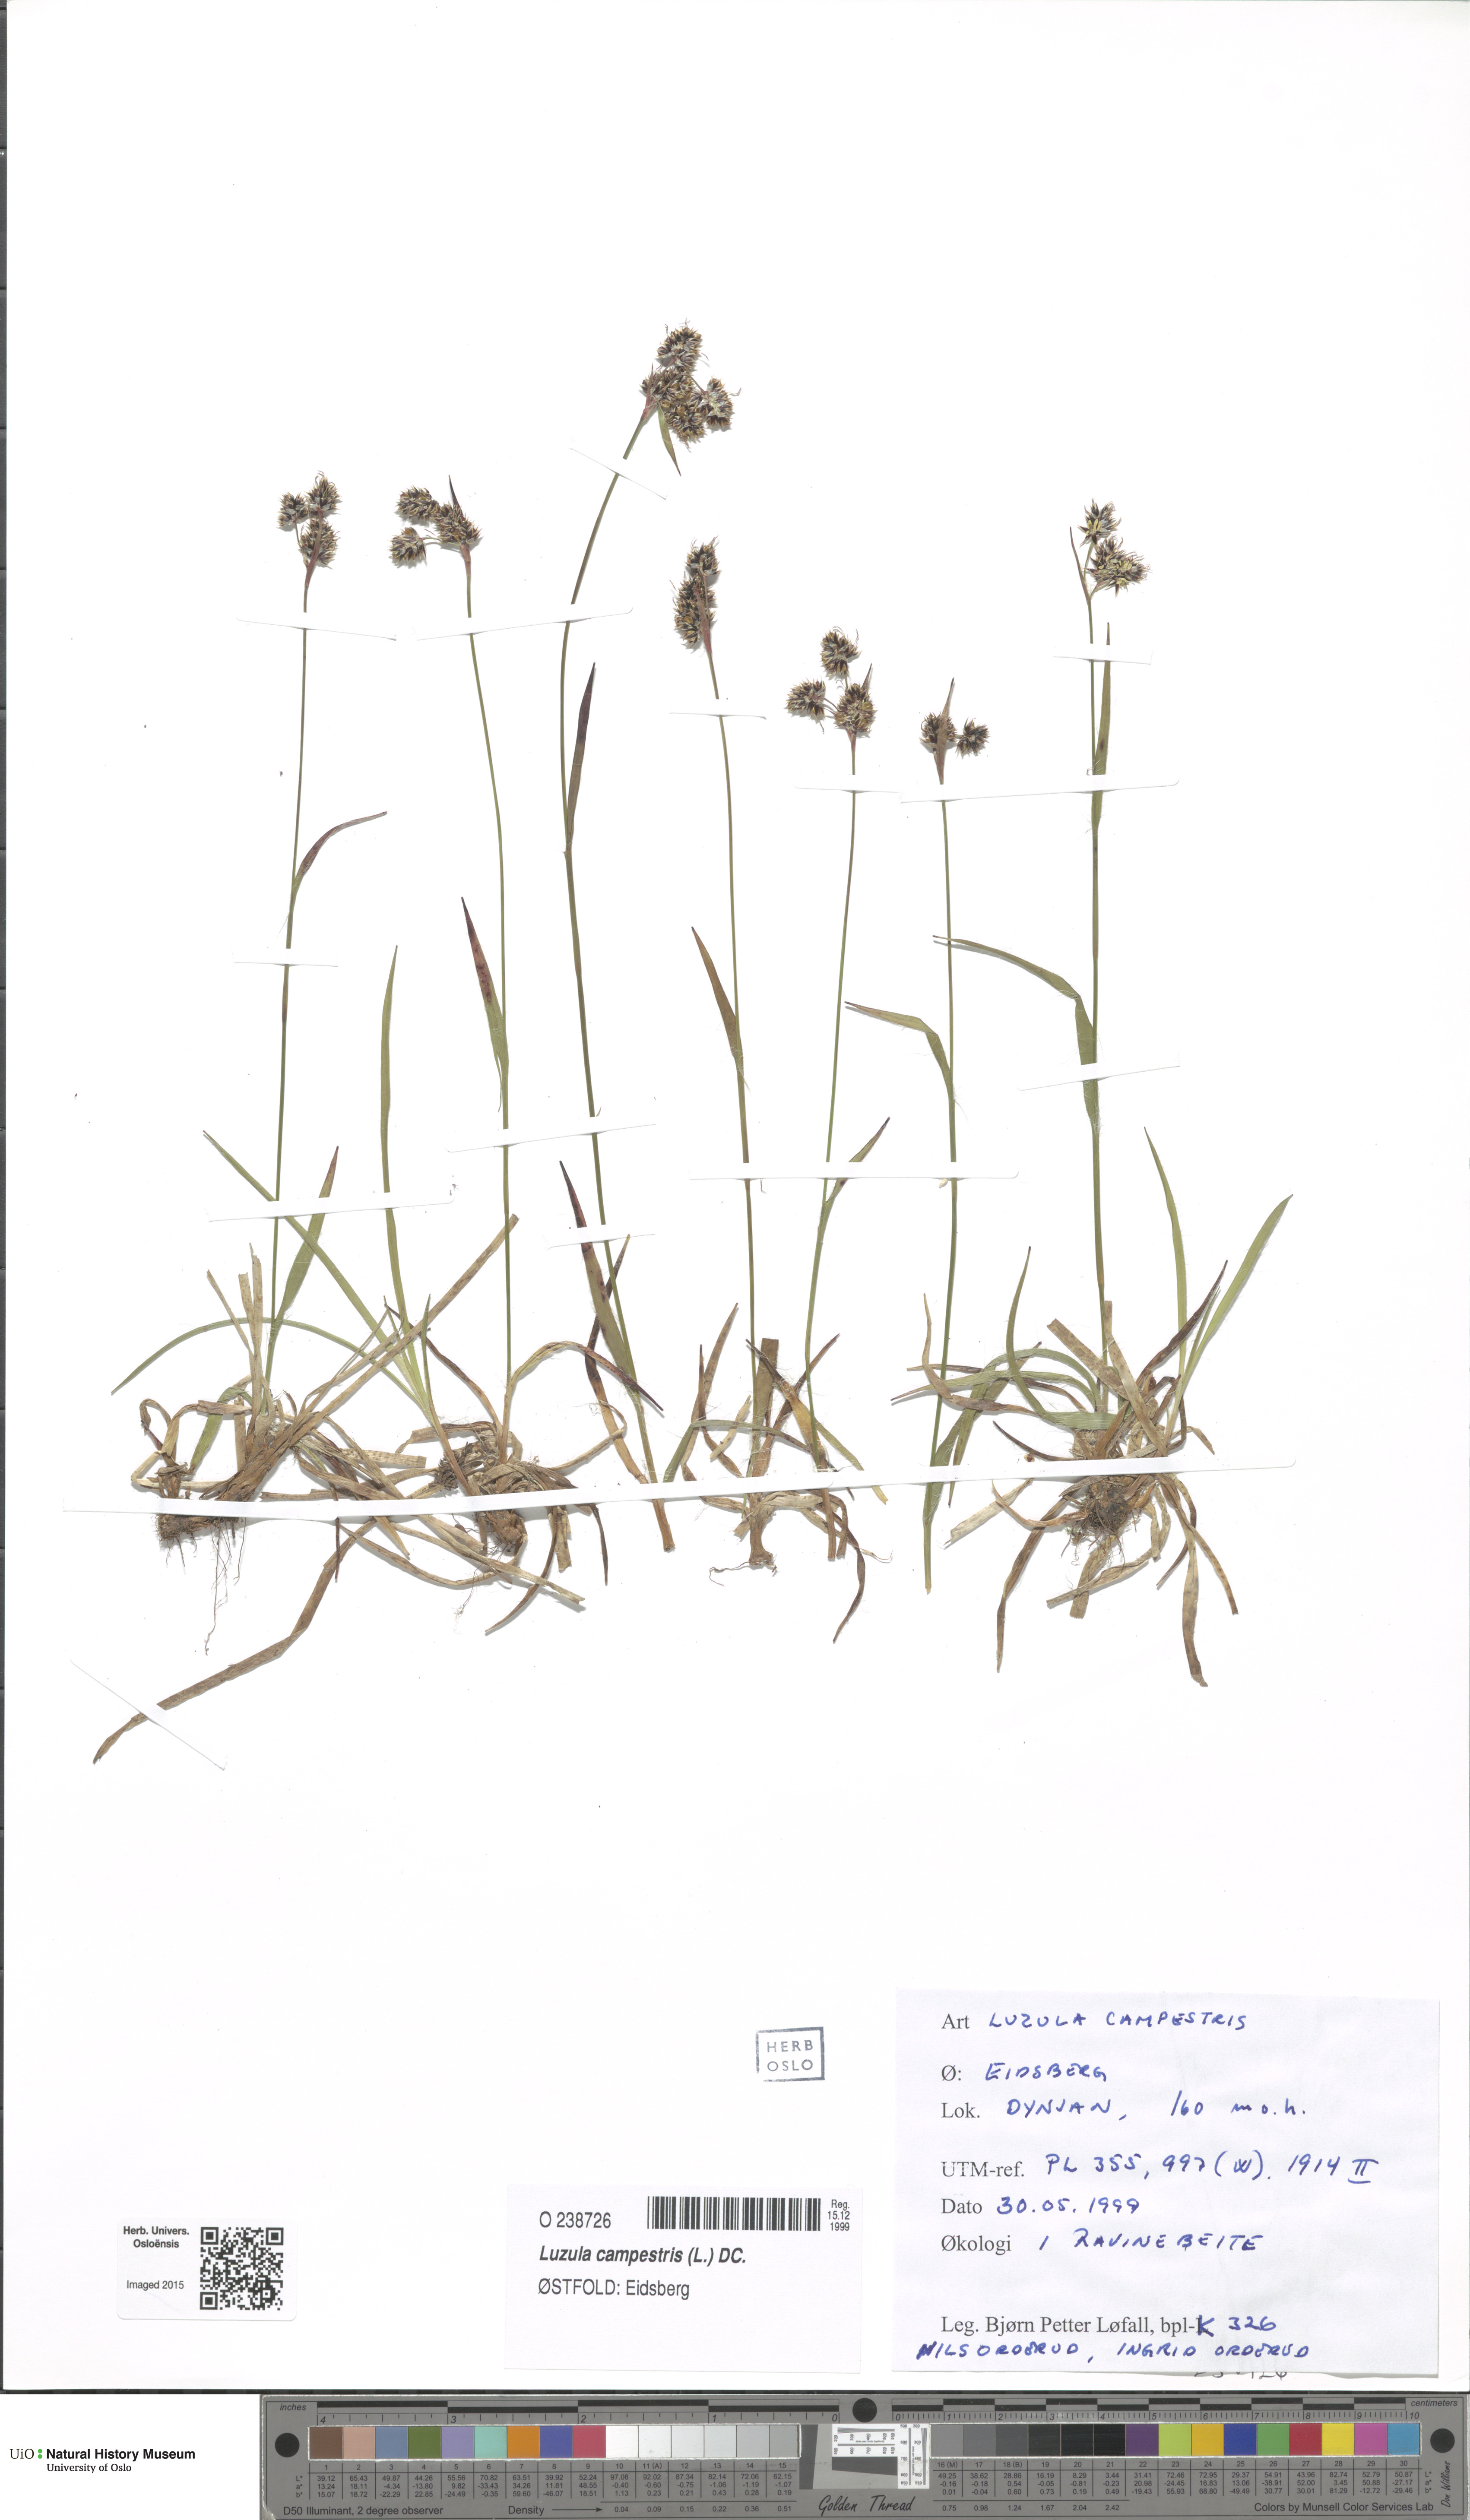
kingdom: Plantae
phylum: Tracheophyta
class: Liliopsida
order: Poales
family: Juncaceae
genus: Luzula
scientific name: Luzula campestris
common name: Field wood-rush
